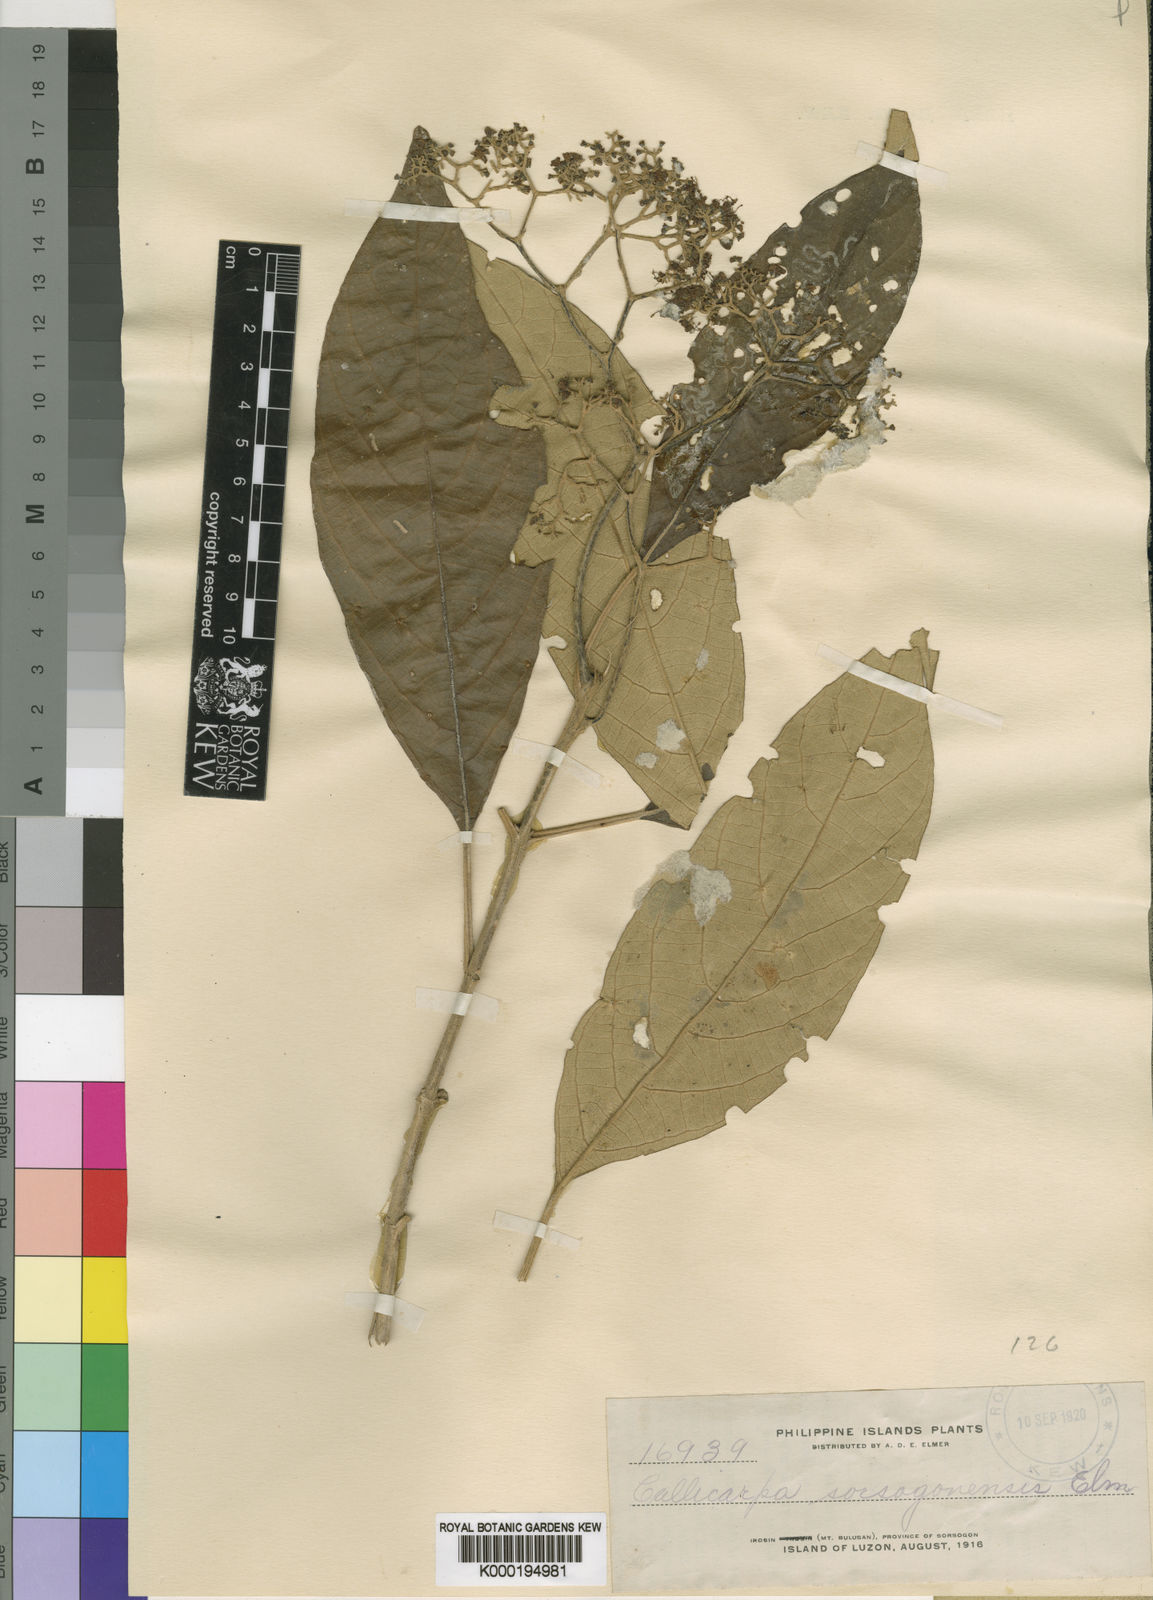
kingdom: Plantae
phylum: Tracheophyta
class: Magnoliopsida
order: Lamiales
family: Lamiaceae
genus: Callicarpa
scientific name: Callicarpa paloensis
